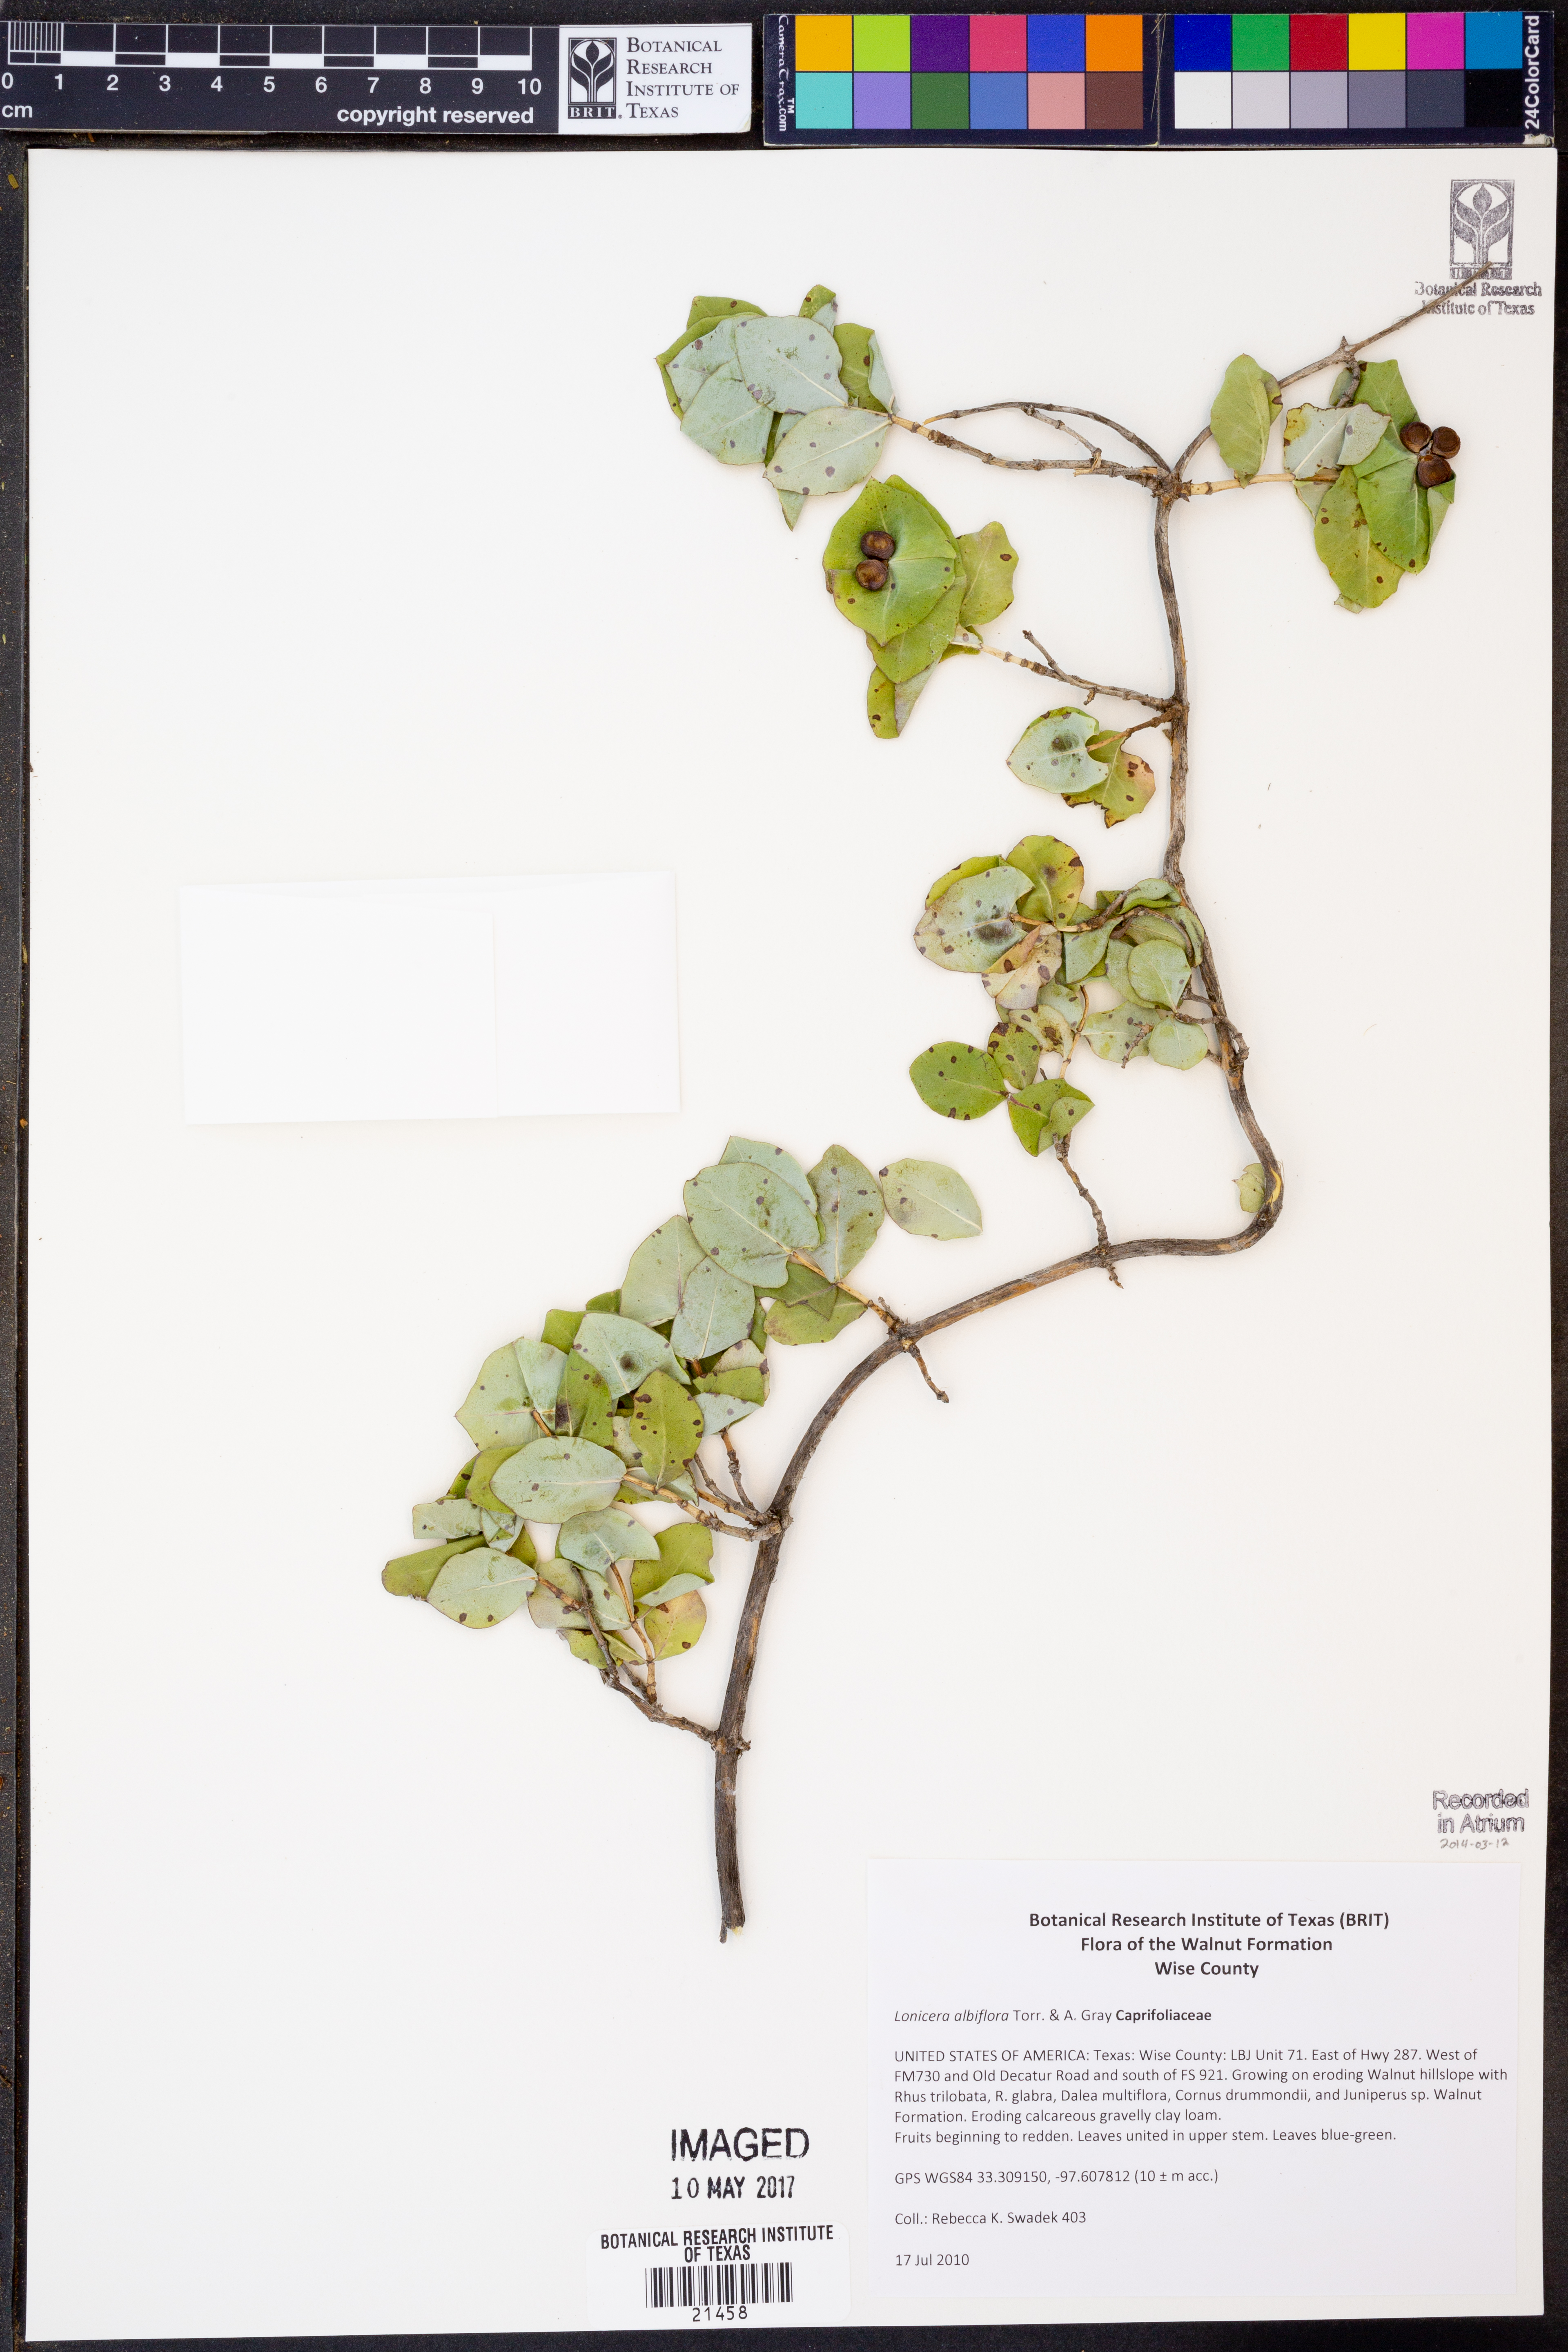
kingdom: Plantae
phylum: Tracheophyta
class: Magnoliopsida
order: Dipsacales
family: Caprifoliaceae
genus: Lonicera
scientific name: Lonicera albiflora
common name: White honeysuckle
